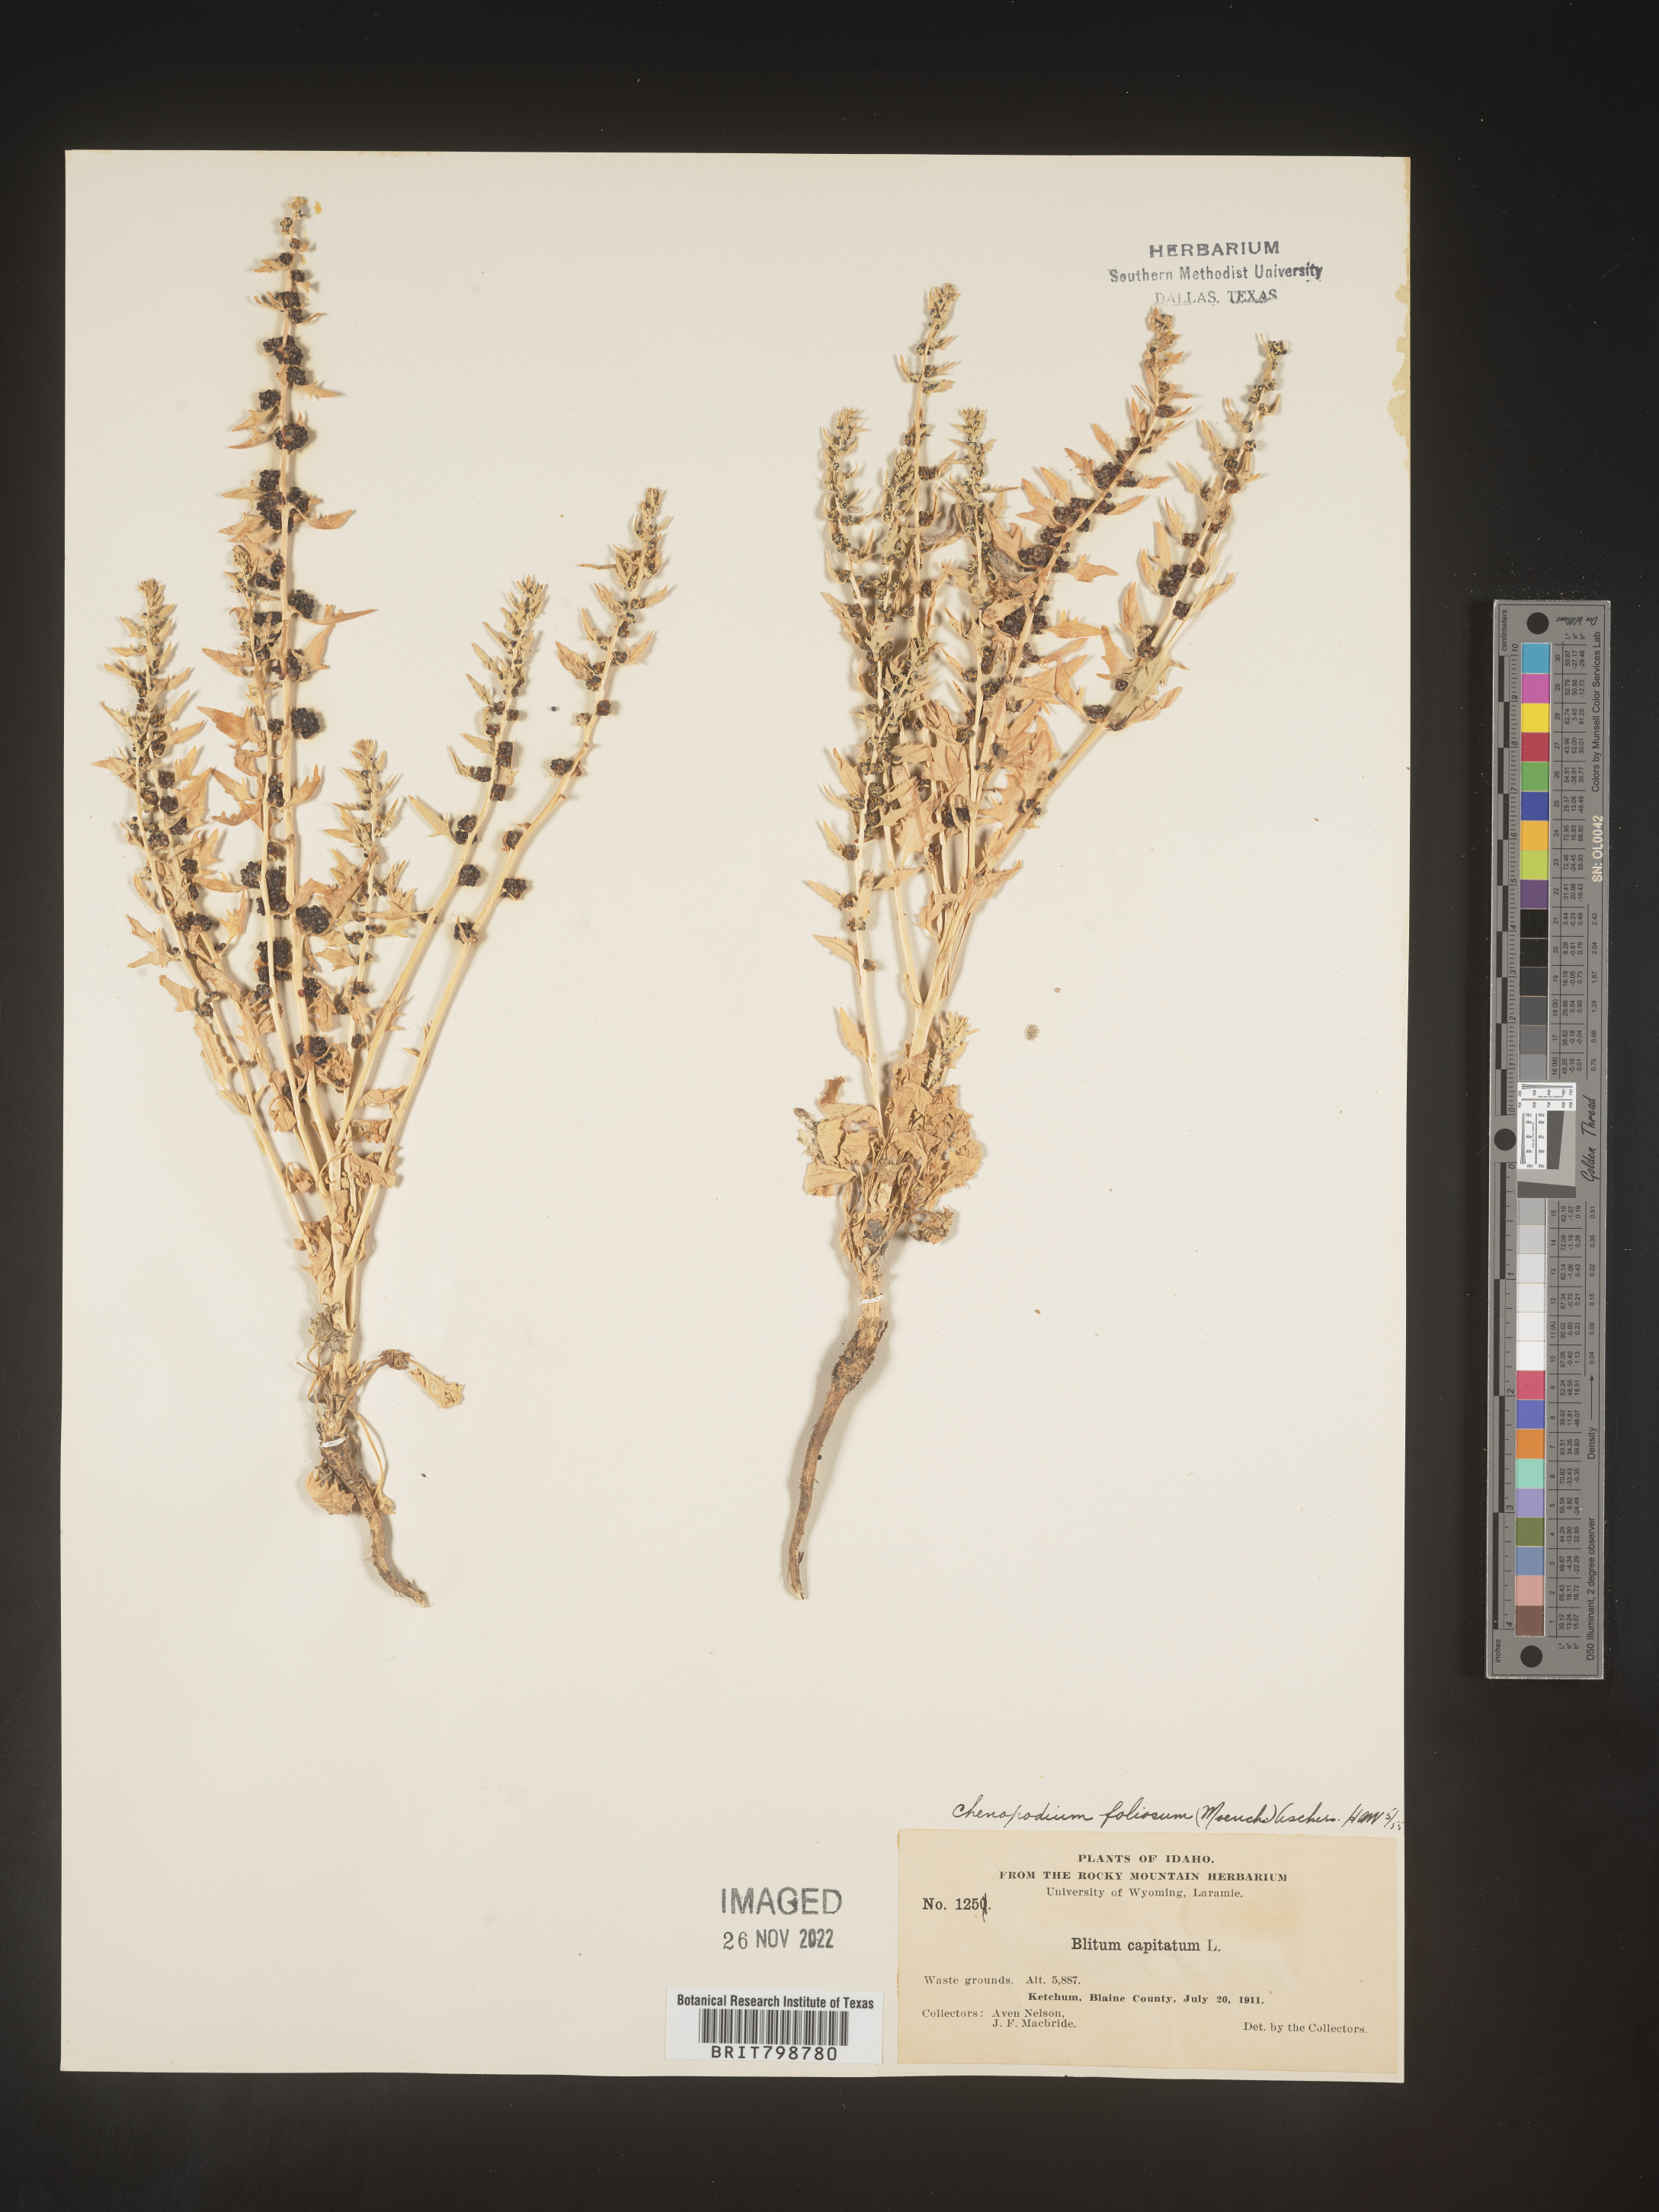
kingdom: Plantae
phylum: Tracheophyta
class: Magnoliopsida
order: Caryophyllales
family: Amaranthaceae
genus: Blitum
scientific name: Blitum virgatum
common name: Strawberry goosefoot
